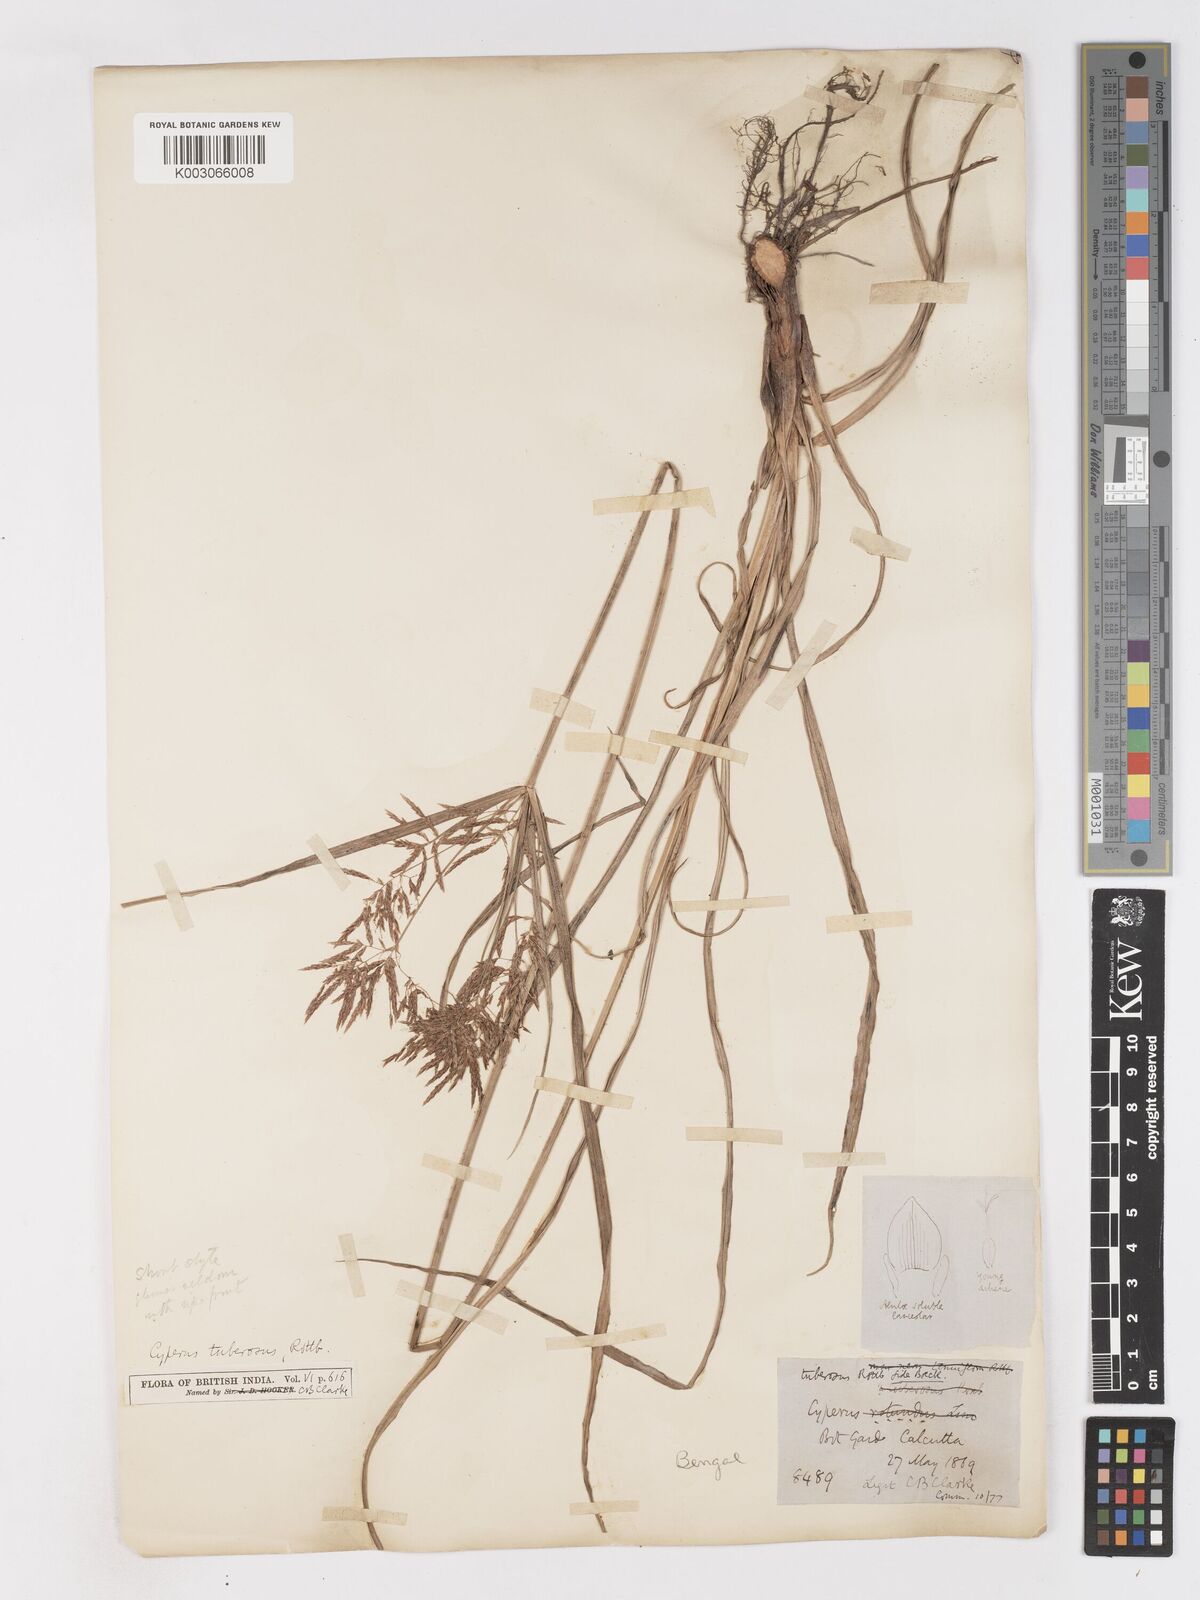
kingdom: Plantae
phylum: Tracheophyta
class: Liliopsida
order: Poales
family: Cyperaceae
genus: Cyperus
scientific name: Cyperus mitis
